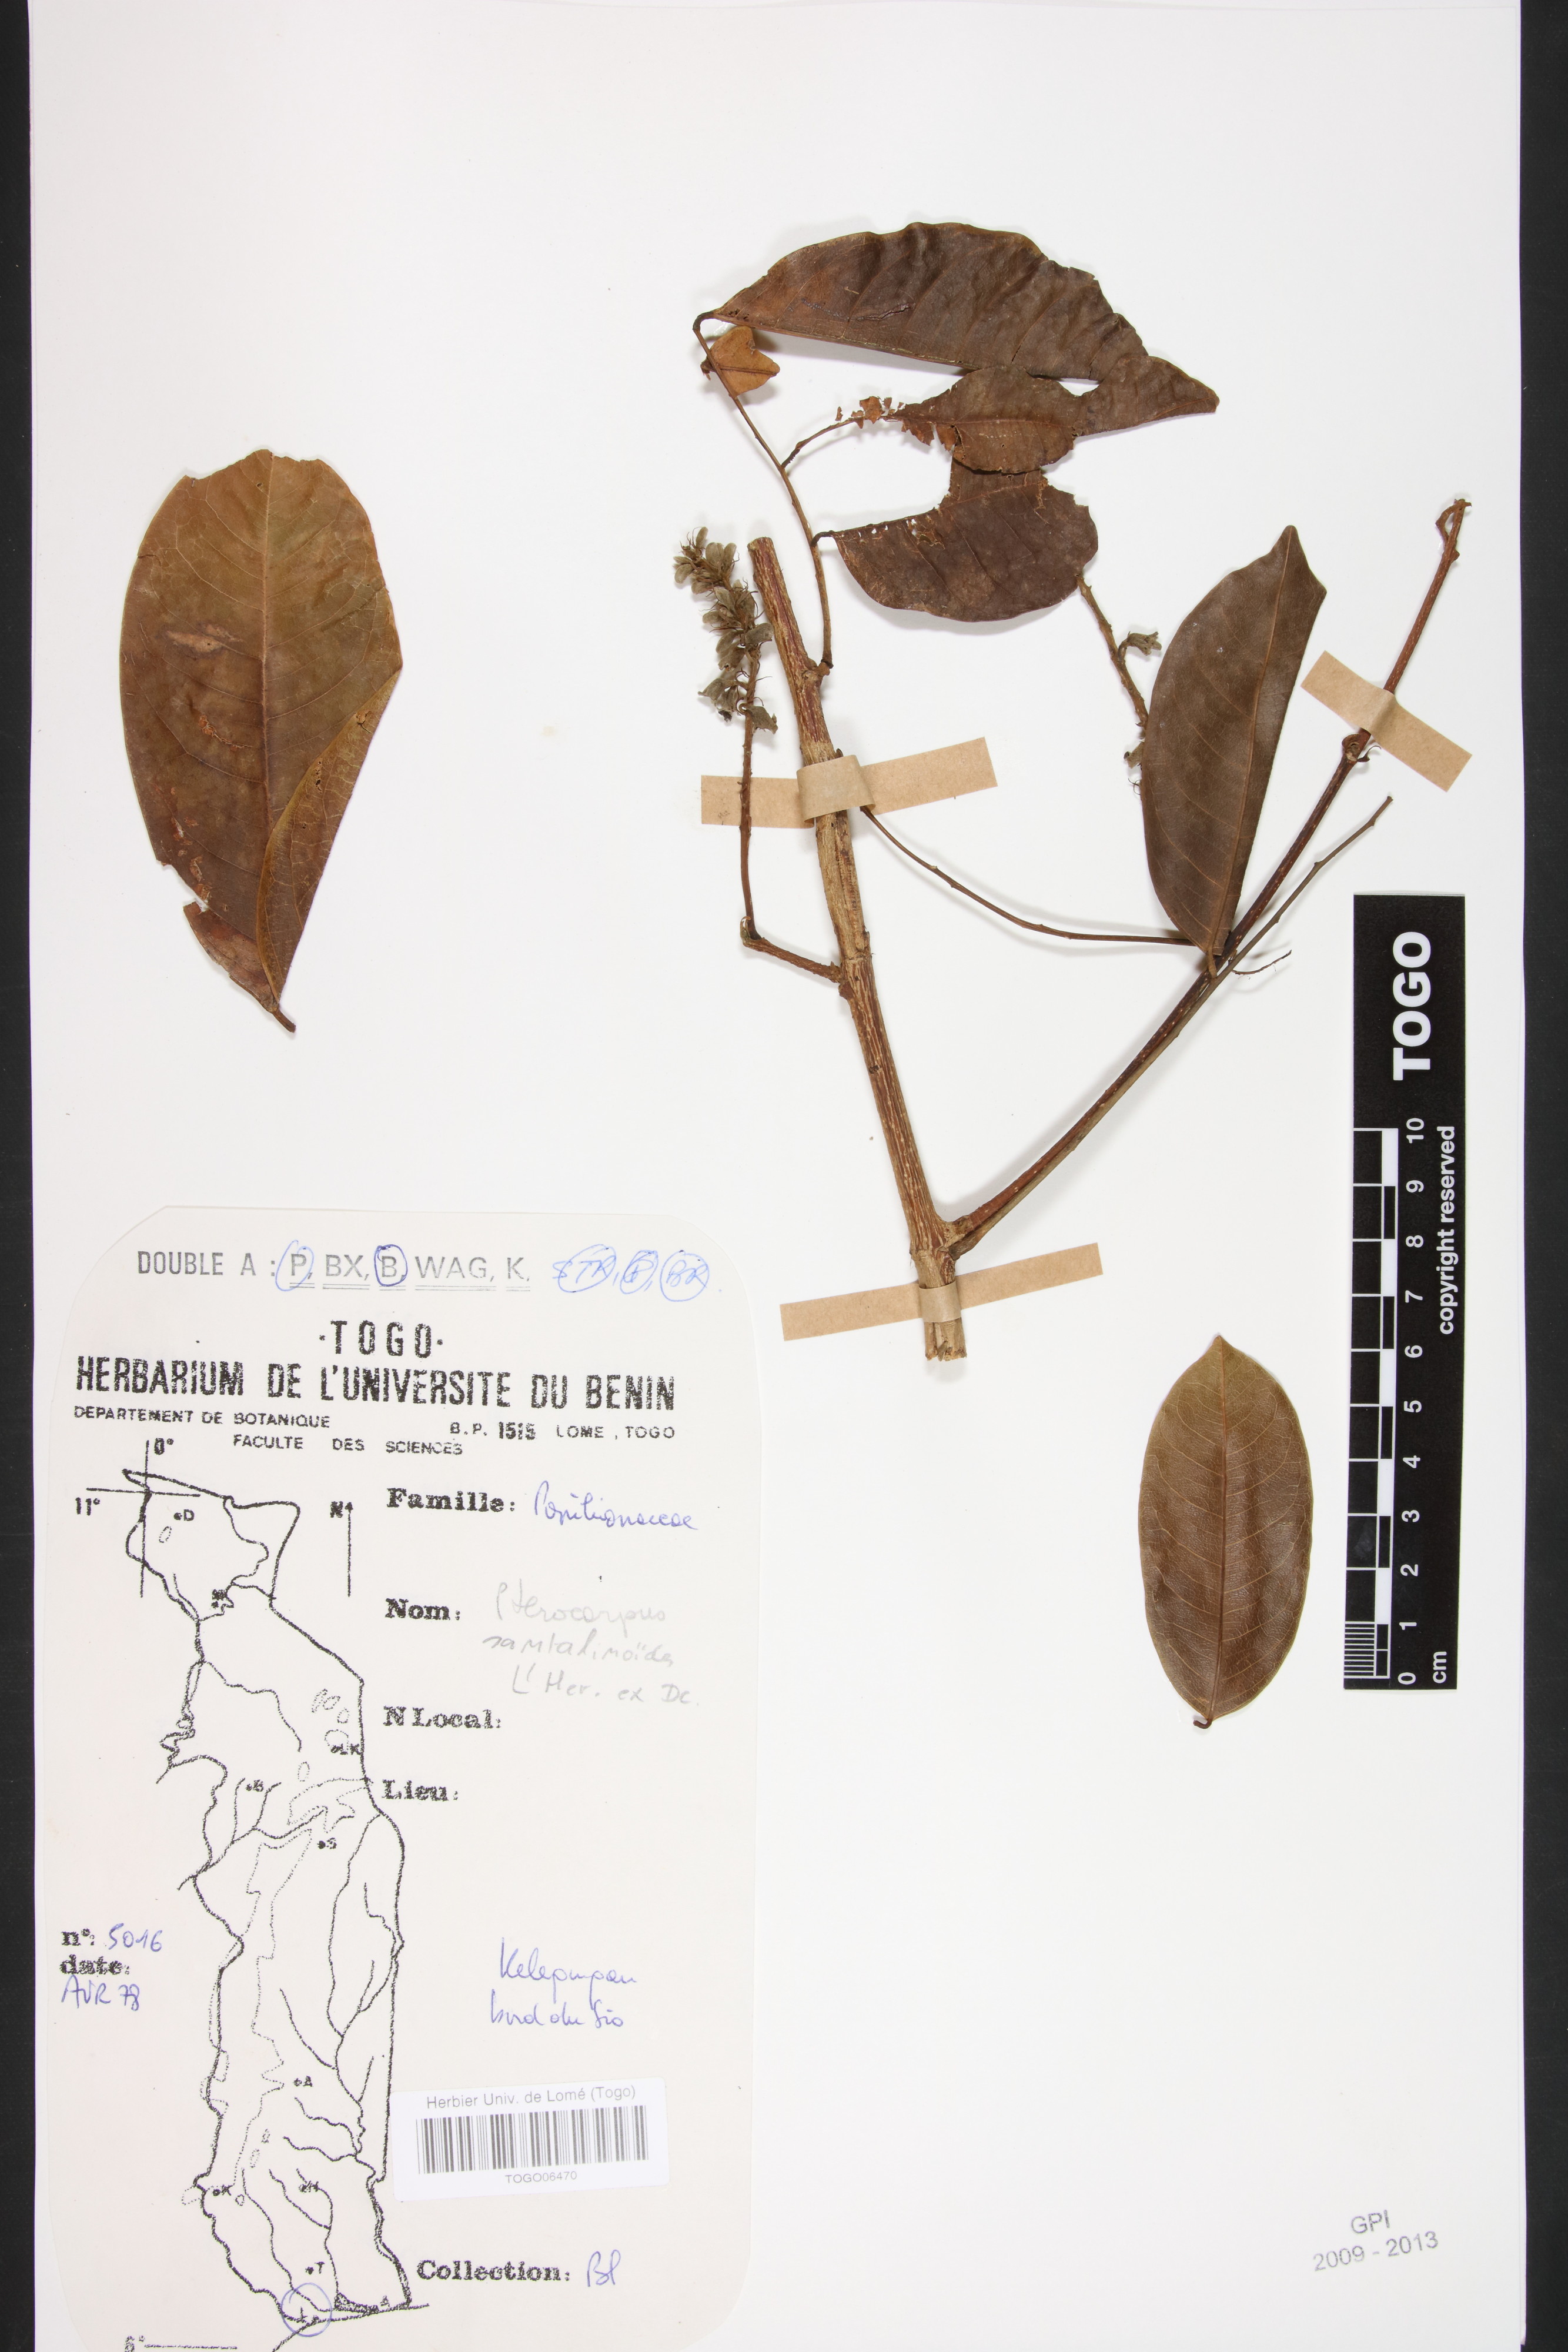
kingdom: Plantae
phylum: Tracheophyta
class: Magnoliopsida
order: Fabales
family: Fabaceae
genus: Pterocarpus
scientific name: Pterocarpus santalinoides
